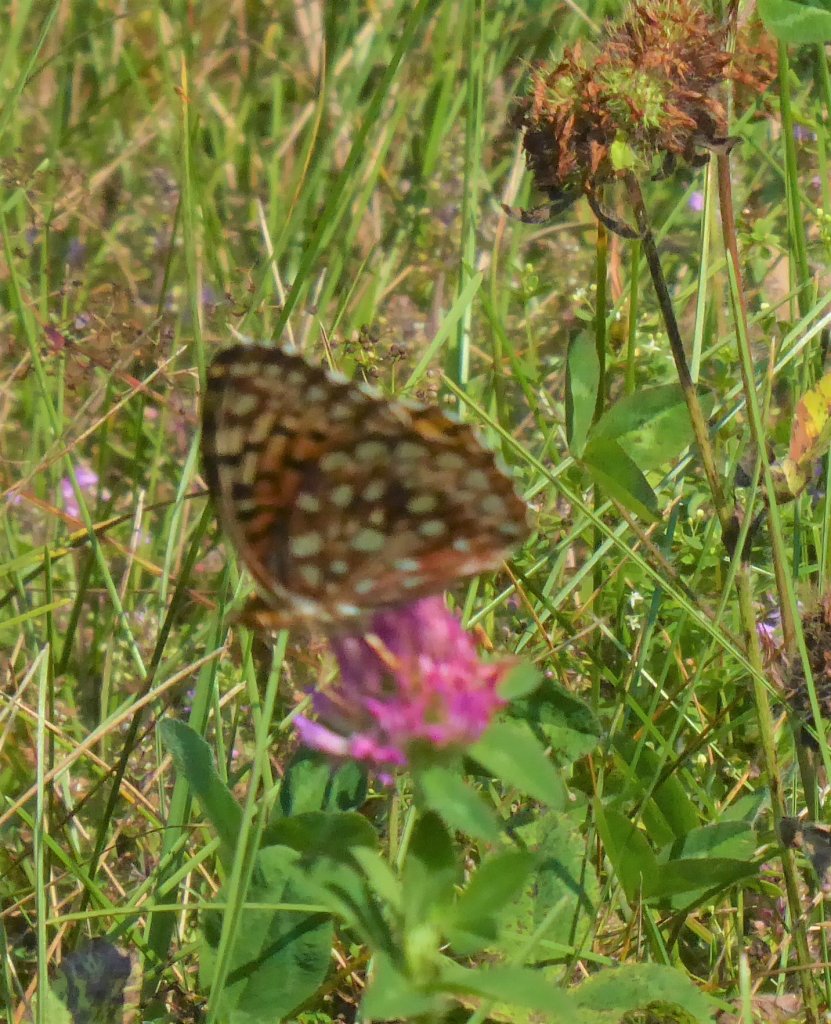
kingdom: Animalia
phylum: Arthropoda
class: Insecta
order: Lepidoptera
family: Nymphalidae
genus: Speyeria
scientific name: Speyeria cybele
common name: Great Spangled Fritillary
